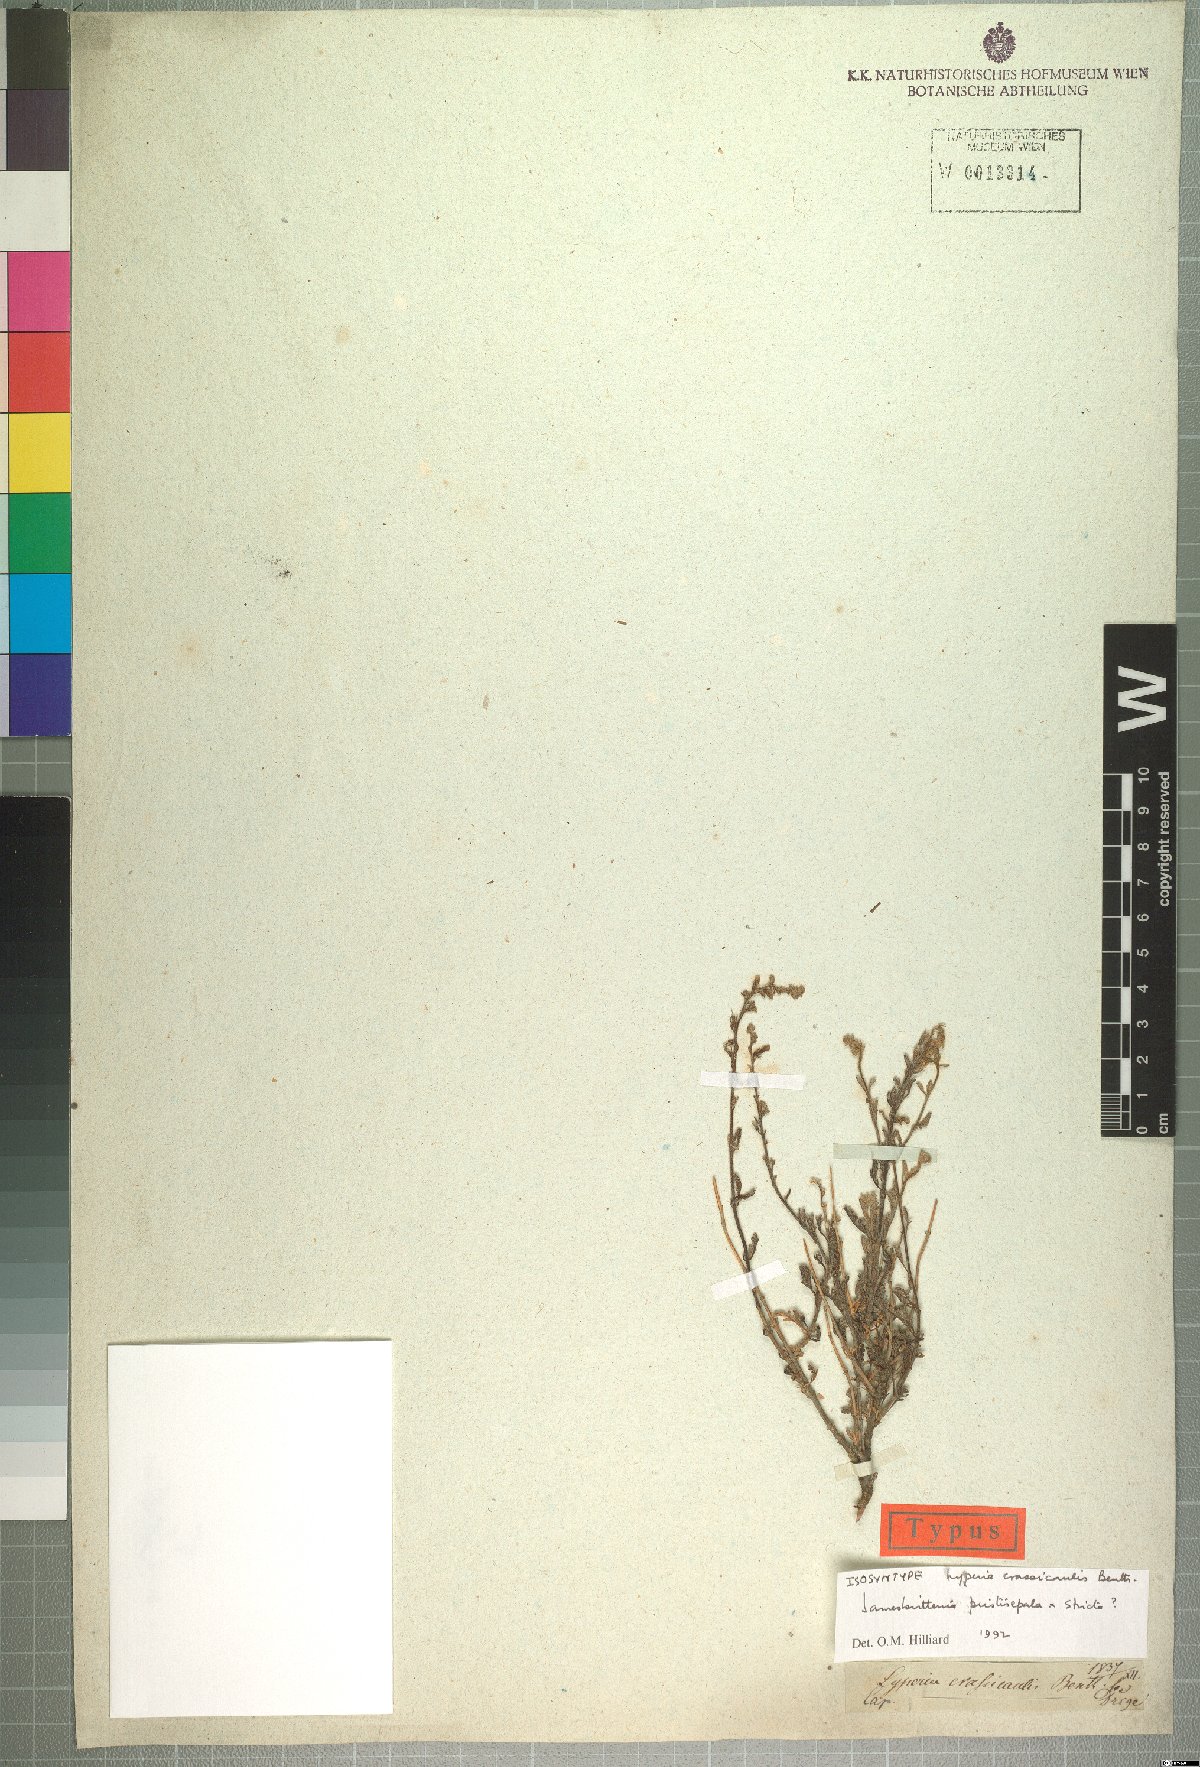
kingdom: Plantae
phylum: Tracheophyta
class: Magnoliopsida
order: Lamiales
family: Scrophulariaceae
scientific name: Scrophulariaceae
